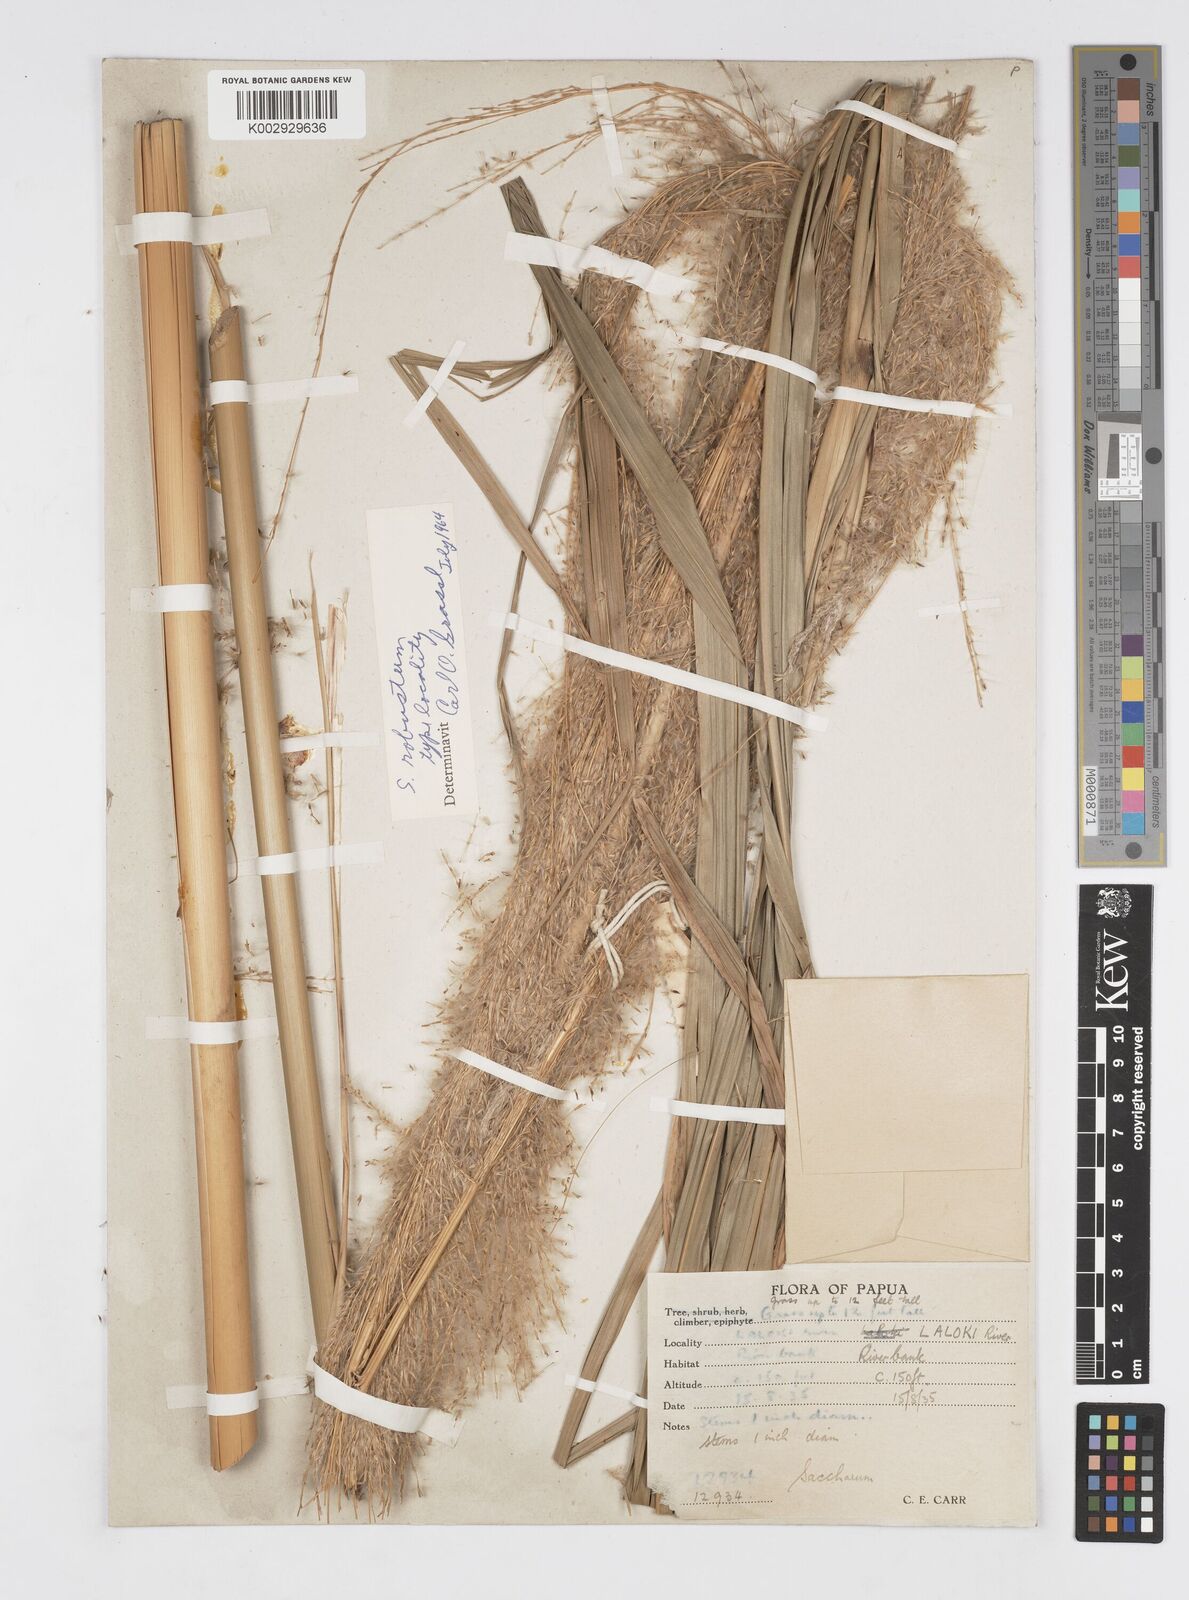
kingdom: Plantae
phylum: Tracheophyta
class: Liliopsida
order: Poales
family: Poaceae
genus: Saccharum
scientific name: Saccharum robustum
